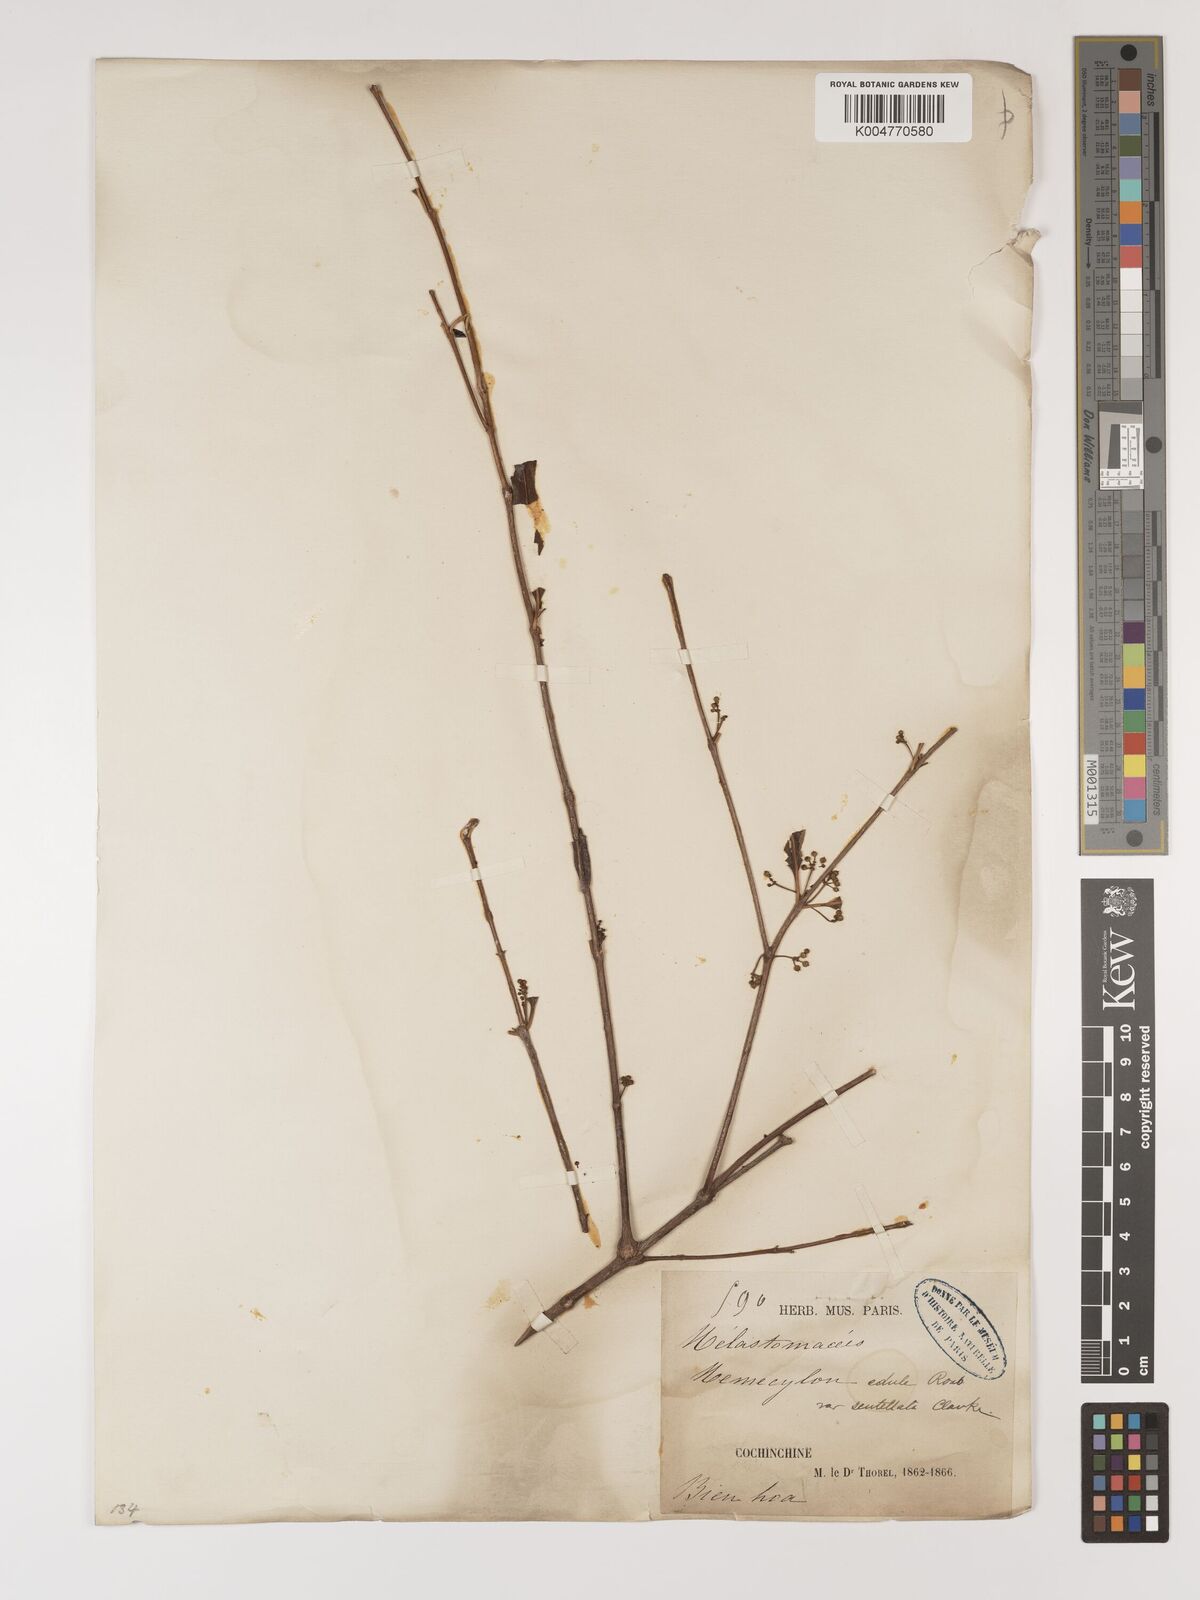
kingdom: Plantae
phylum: Tracheophyta
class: Magnoliopsida
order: Myrtales
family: Melastomataceae
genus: Memecylon
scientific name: Memecylon scutellatum
